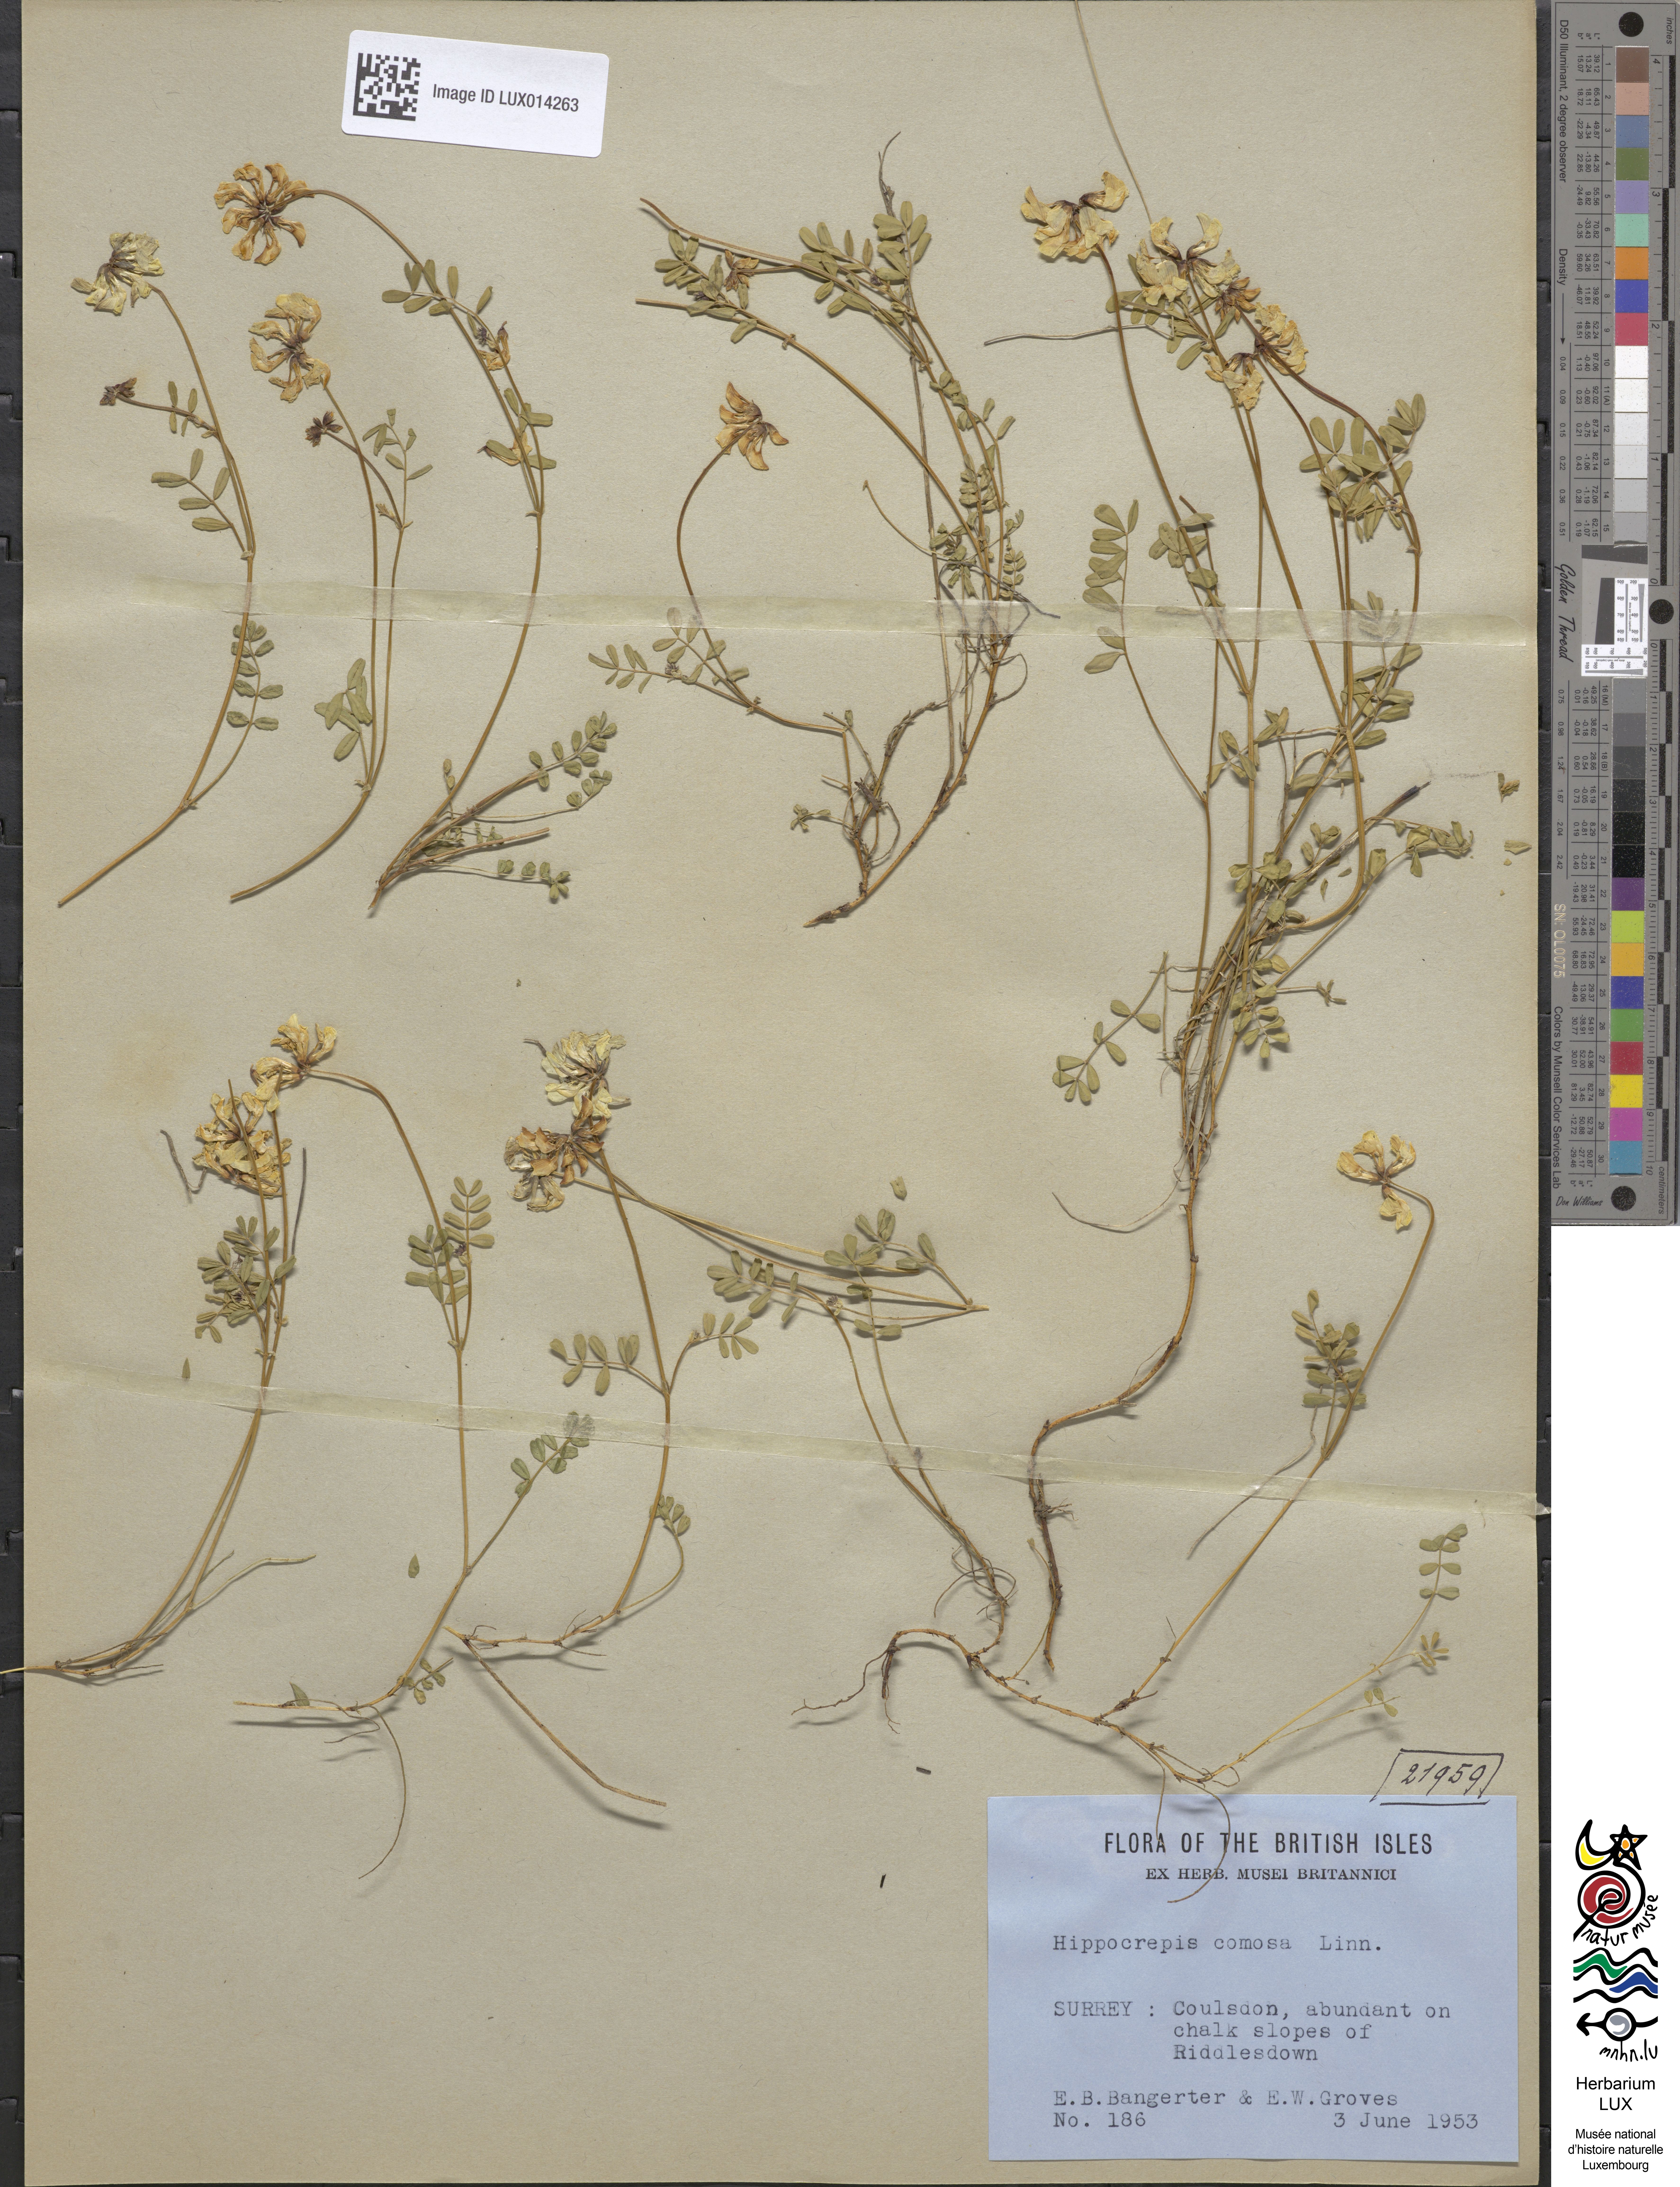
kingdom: Plantae
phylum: Tracheophyta
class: Magnoliopsida
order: Fabales
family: Fabaceae
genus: Hippocrepis
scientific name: Hippocrepis comosa
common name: Horseshoe vetch
